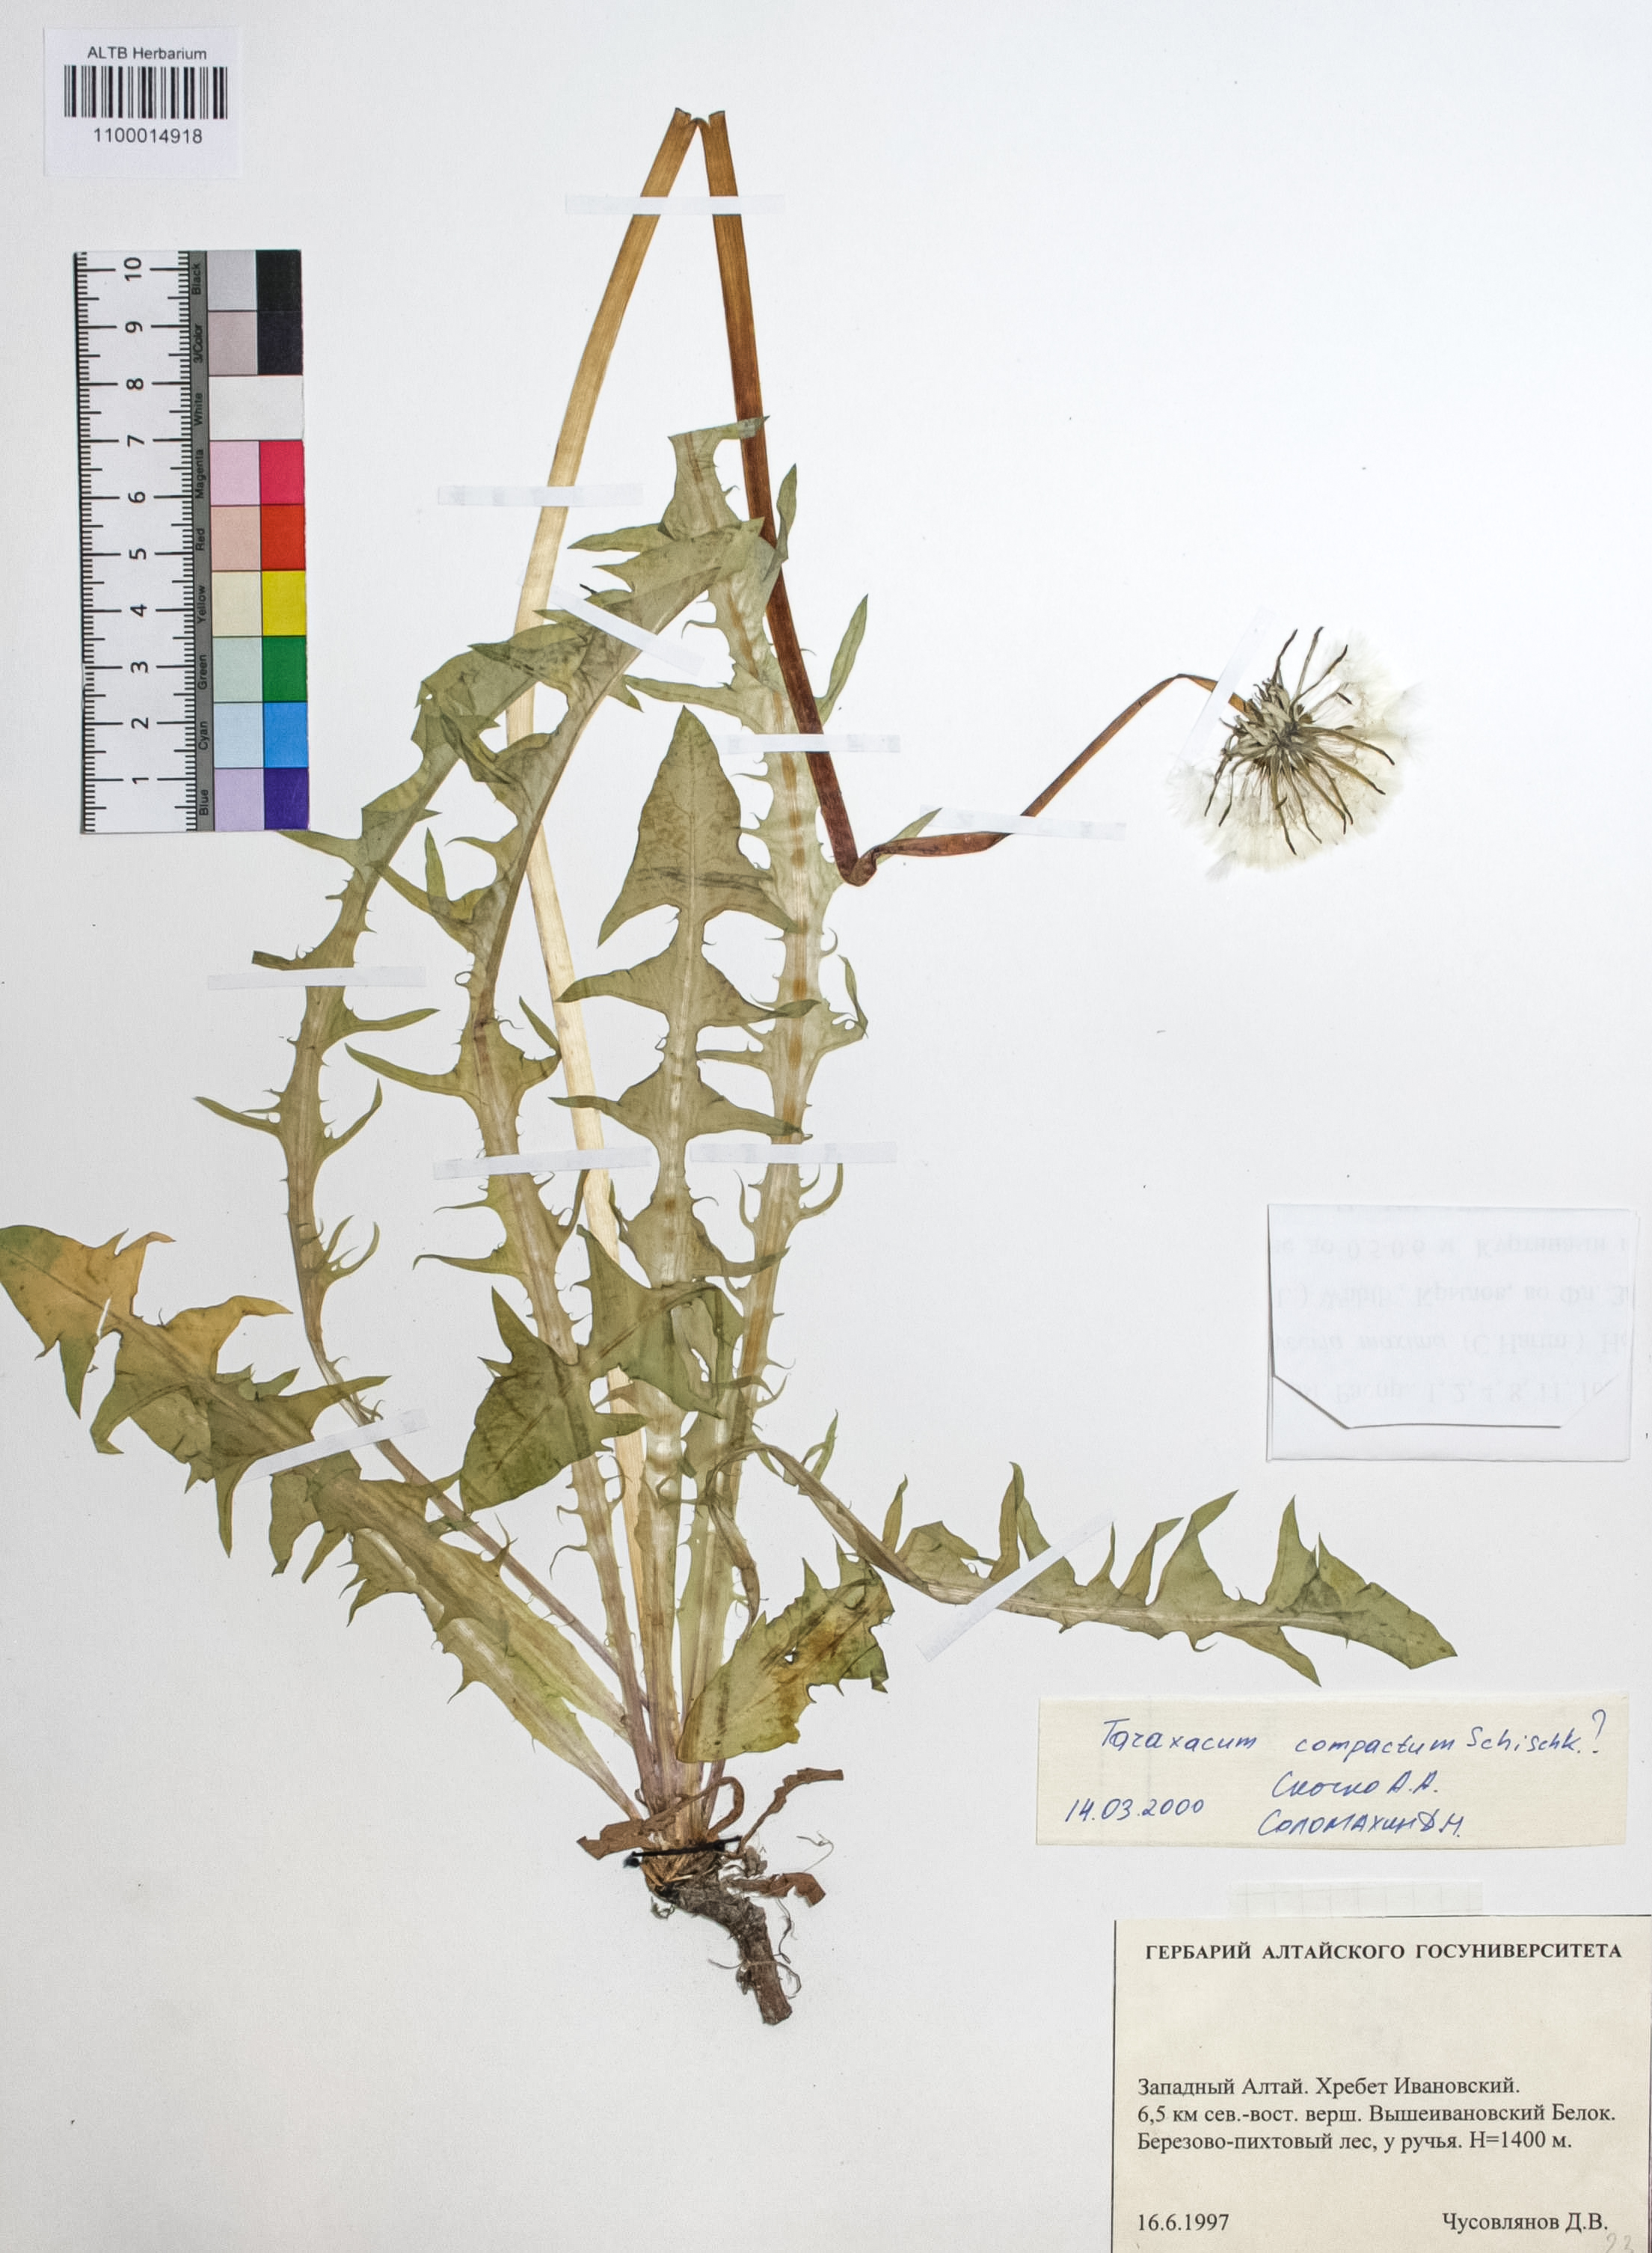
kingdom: Plantae
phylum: Tracheophyta
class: Magnoliopsida
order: Asterales
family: Asteraceae
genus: Taraxacum
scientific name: Taraxacum microspermum
